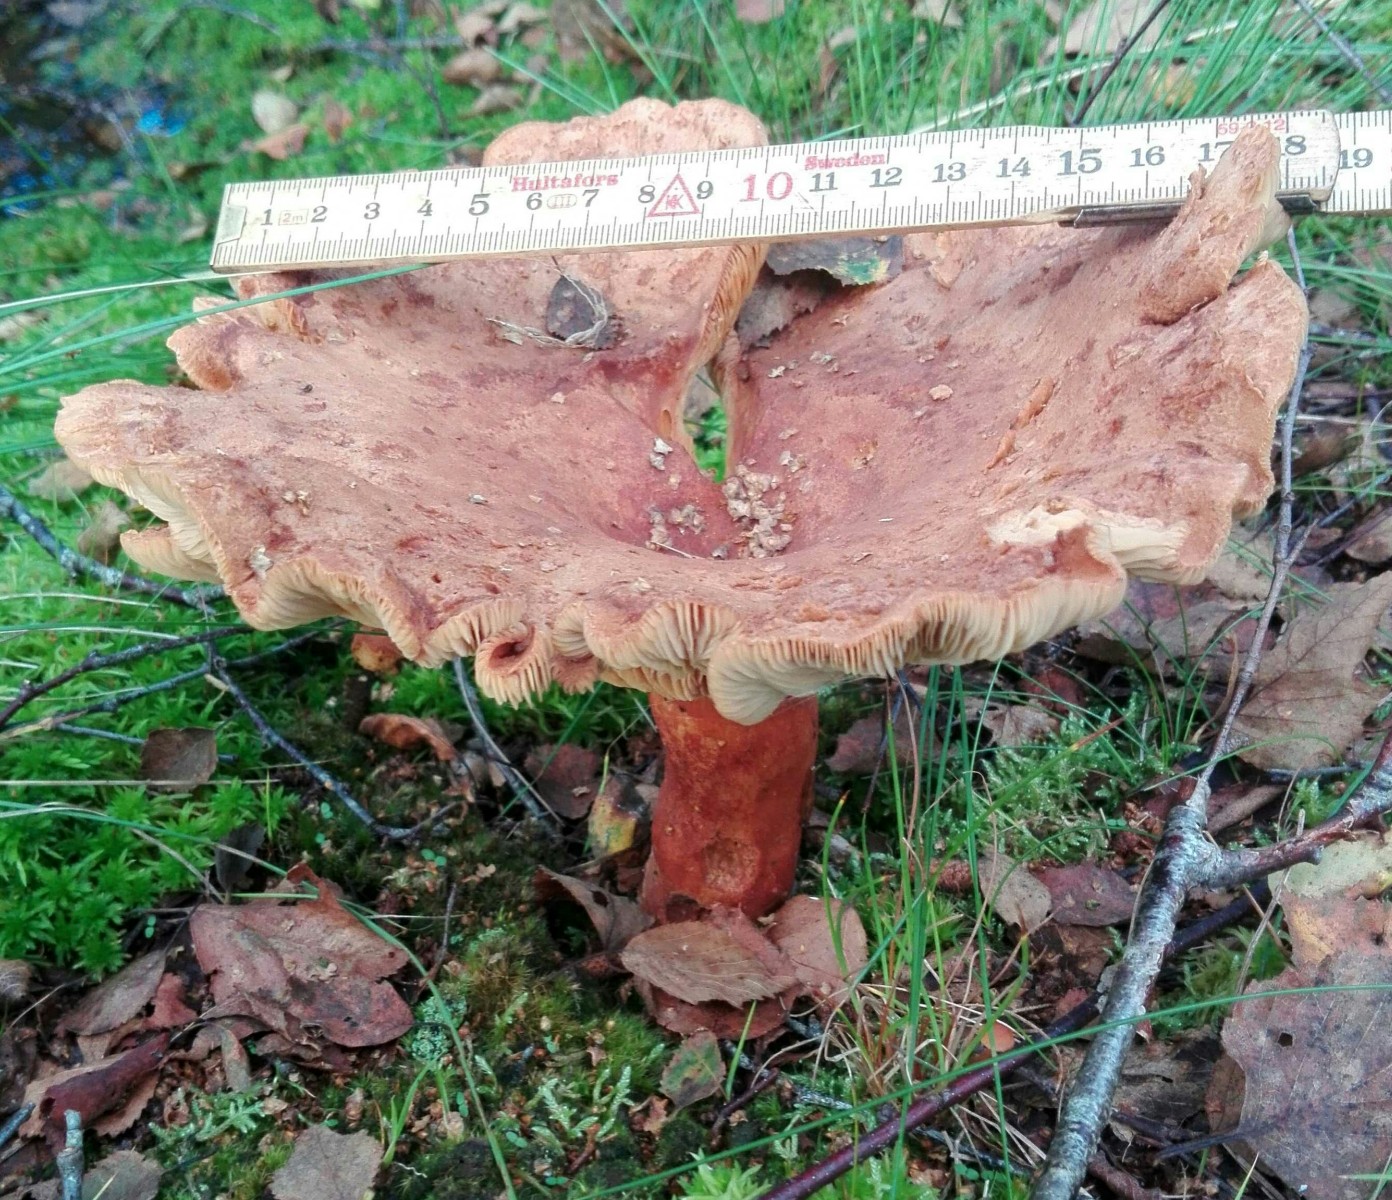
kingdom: Fungi
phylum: Basidiomycota
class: Agaricomycetes
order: Russulales
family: Russulaceae
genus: Lactarius
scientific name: Lactarius helvus
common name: mose-mælkehat
